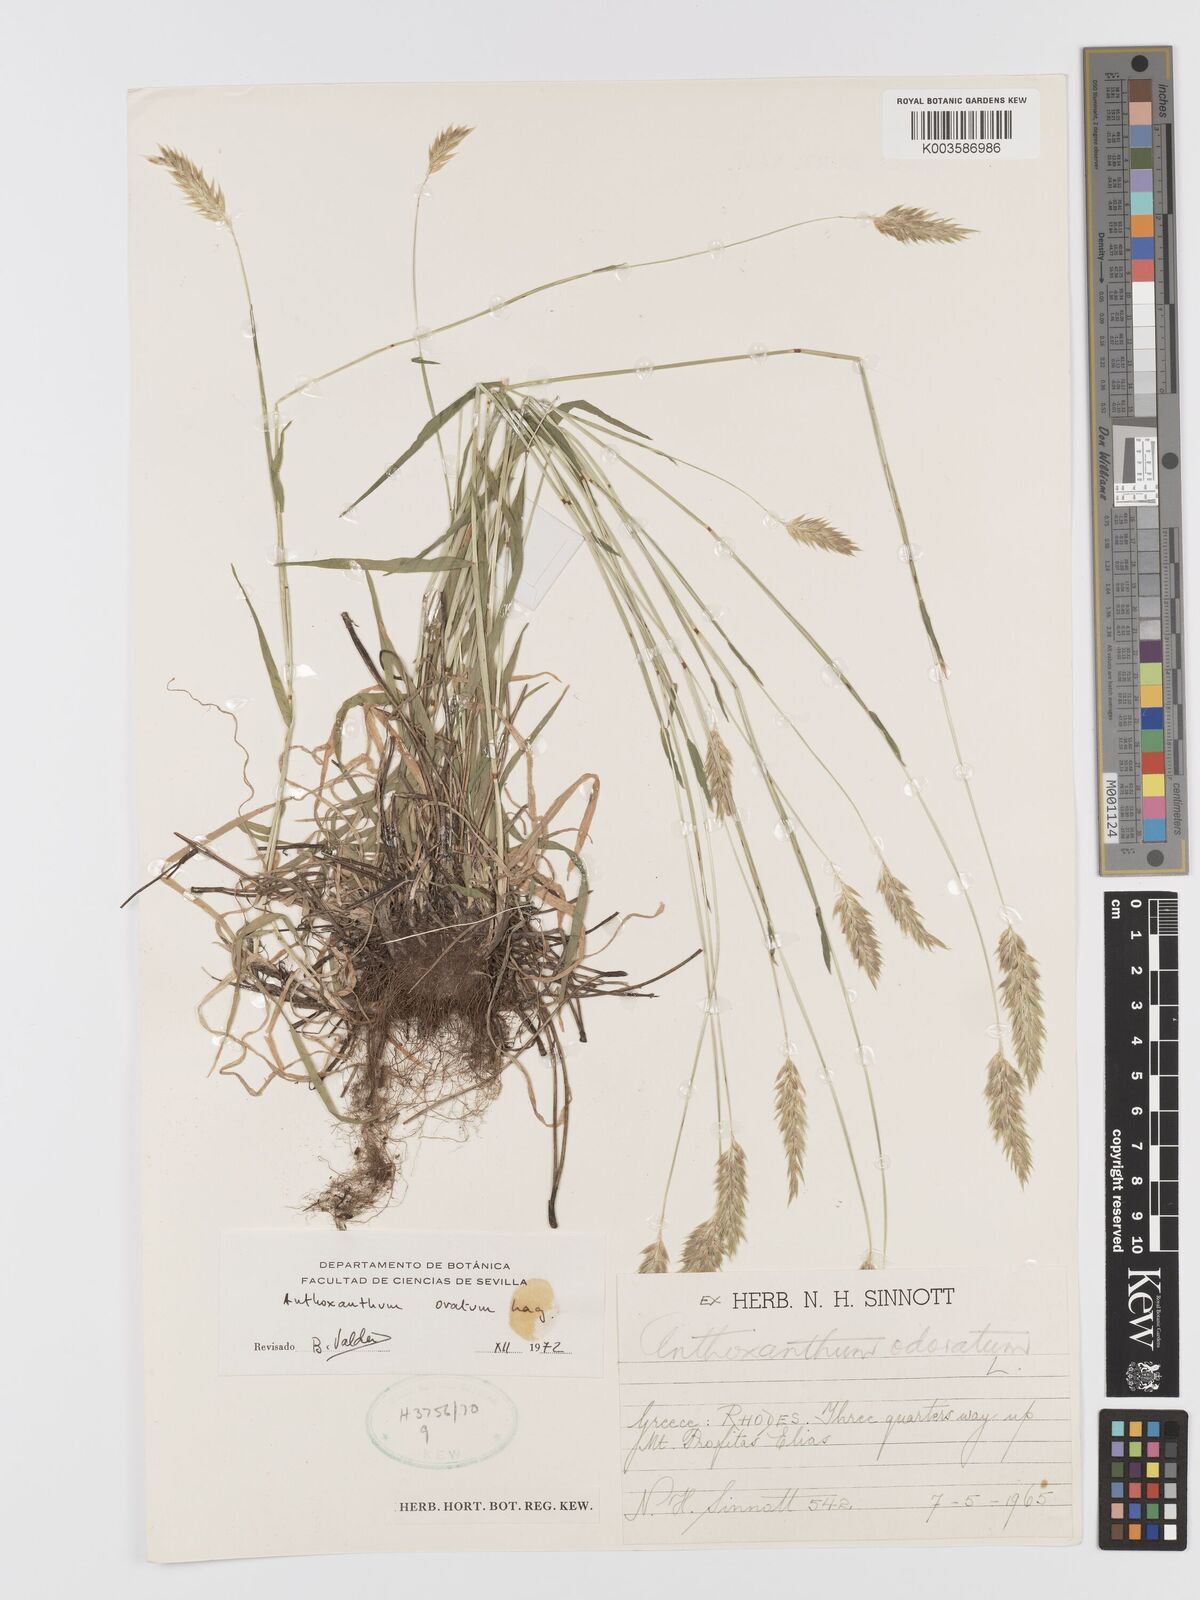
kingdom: Plantae
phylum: Tracheophyta
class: Liliopsida
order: Poales
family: Poaceae
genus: Anthoxanthum
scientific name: Anthoxanthum ovatum
